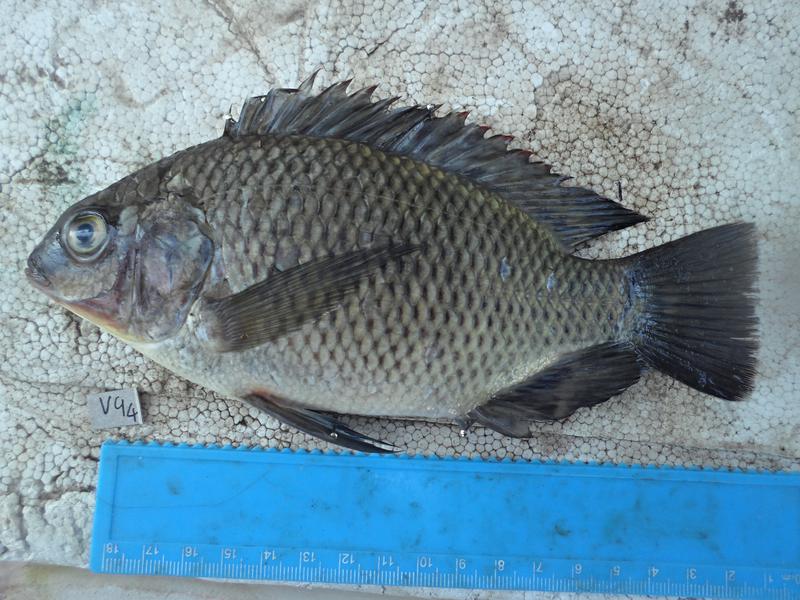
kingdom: Animalia
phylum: Chordata
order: Perciformes
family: Cichlidae
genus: Oreochromis
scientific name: Oreochromis variabilis
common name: Victoria tilapia
